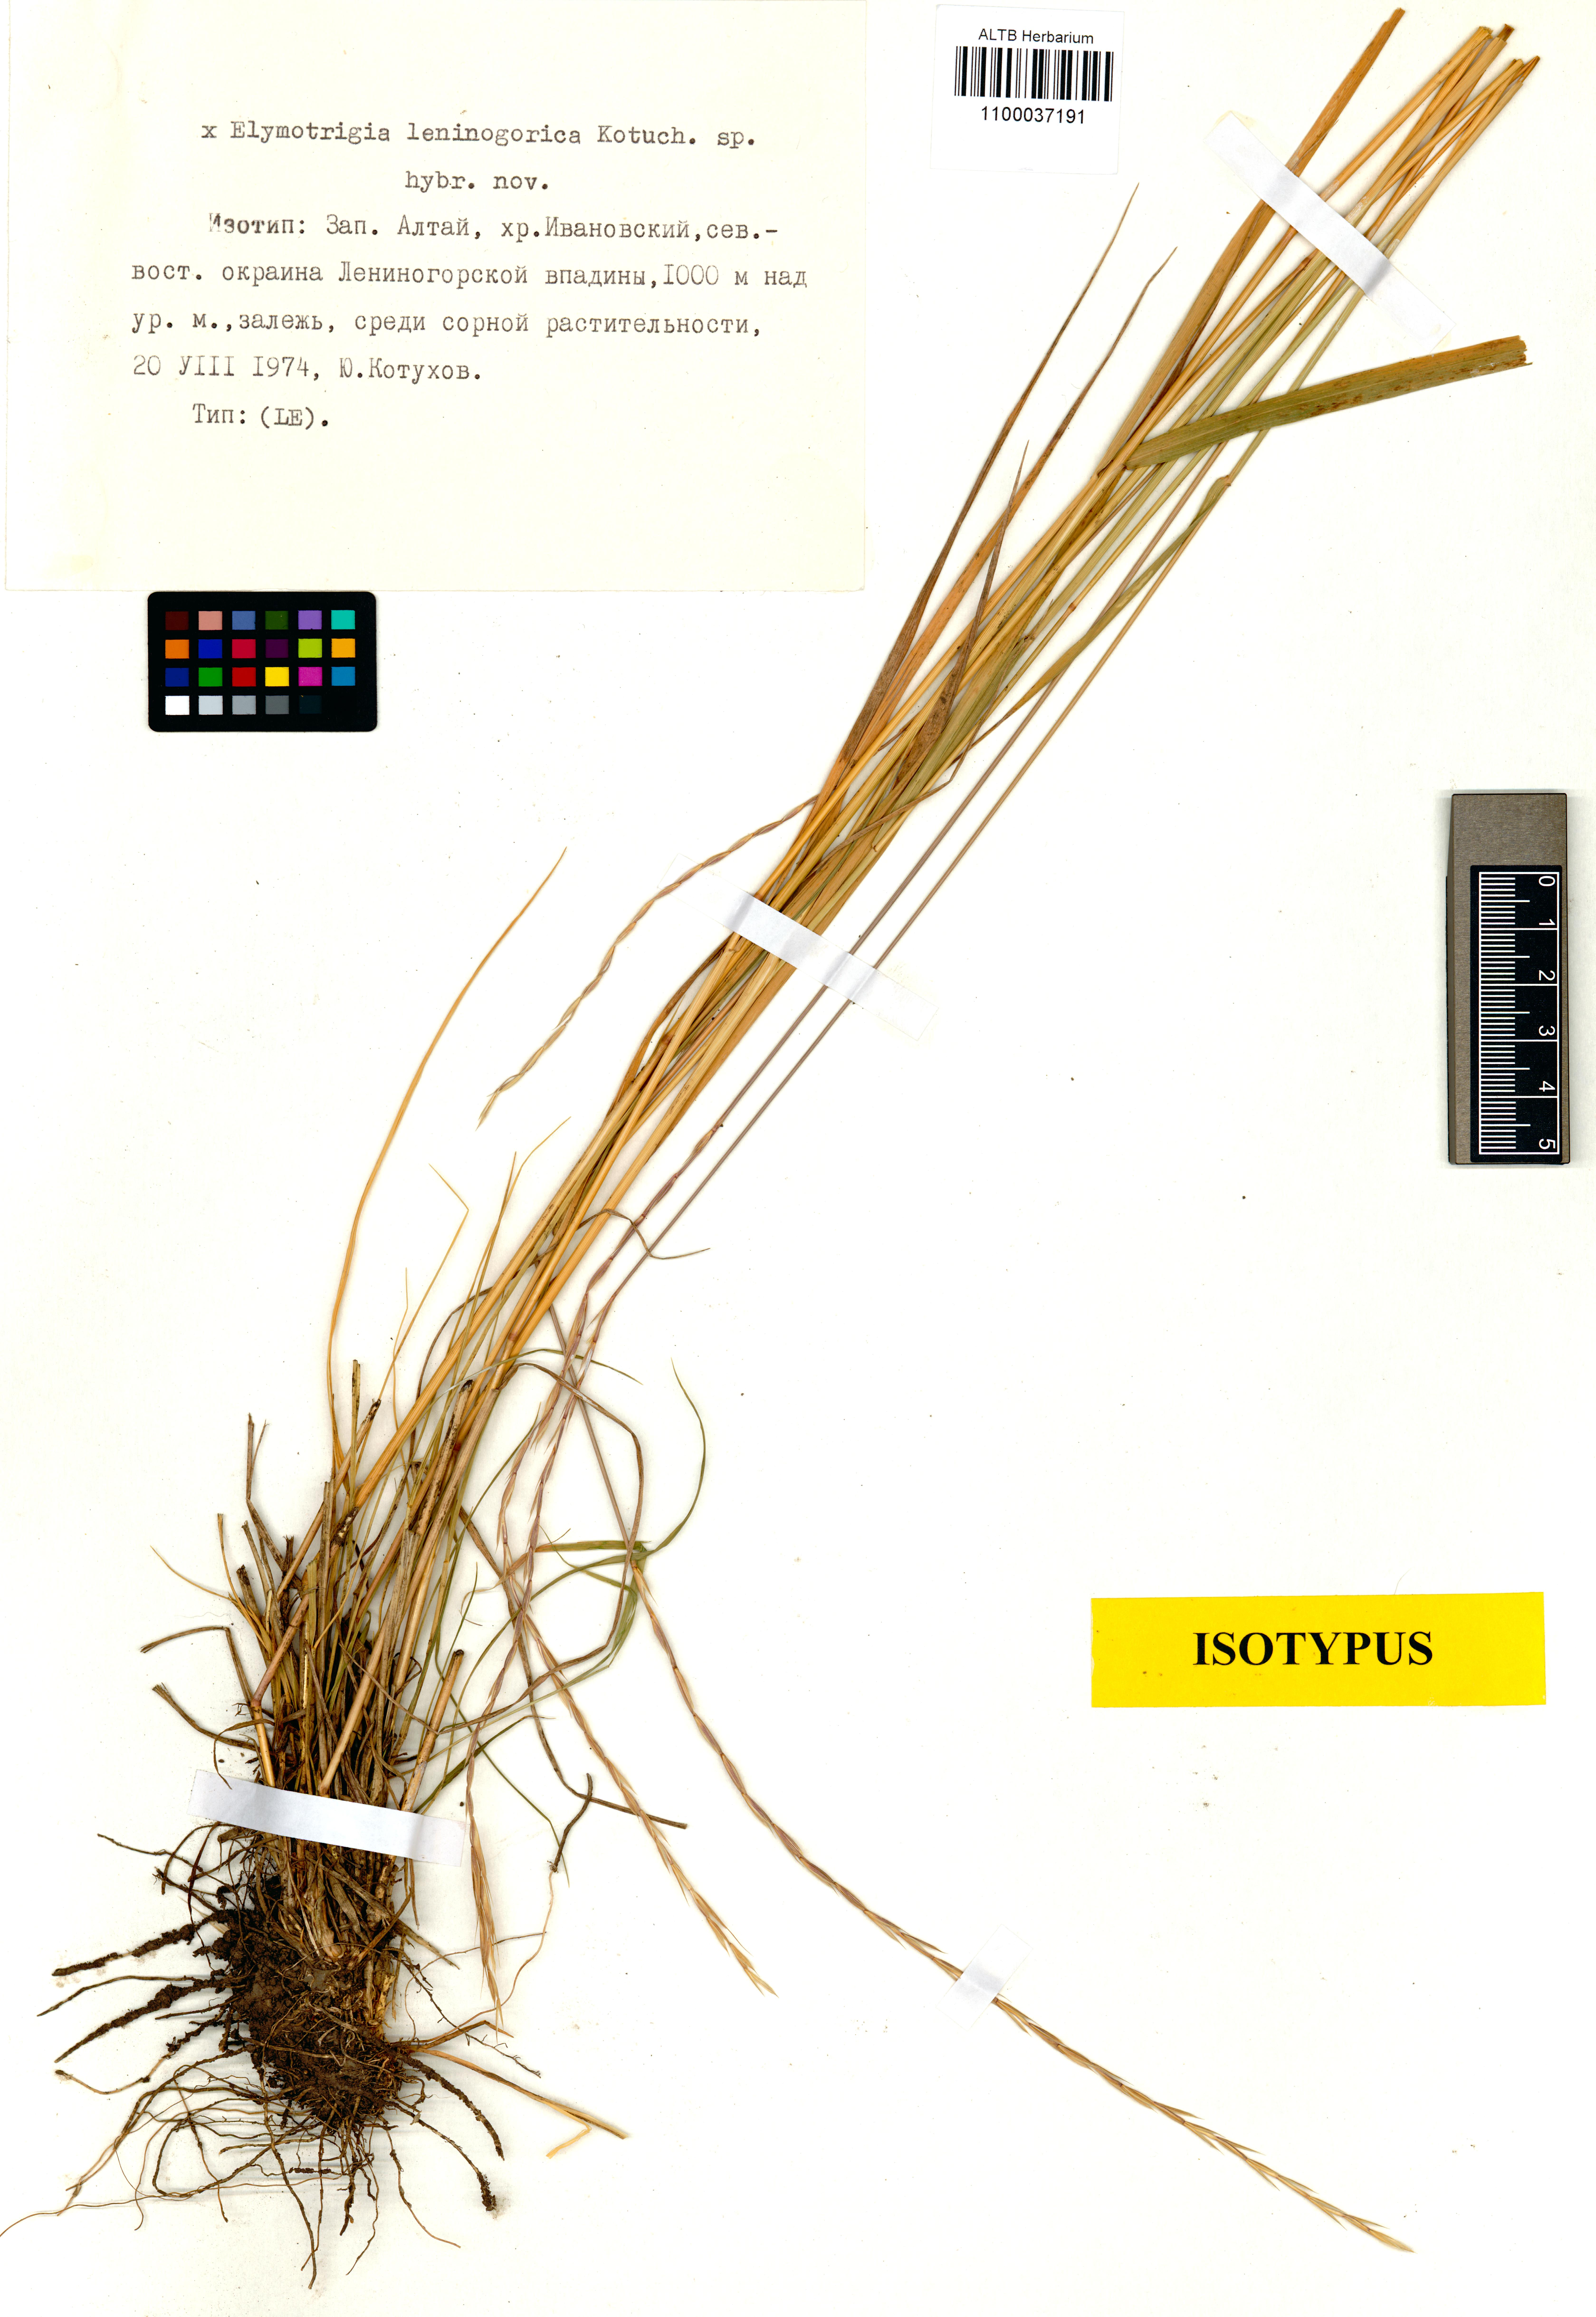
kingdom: Plantae
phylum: Tracheophyta
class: Liliopsida
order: Poales
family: Poaceae
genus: Elymus
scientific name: Elymus Elymotrigia leninogorica
